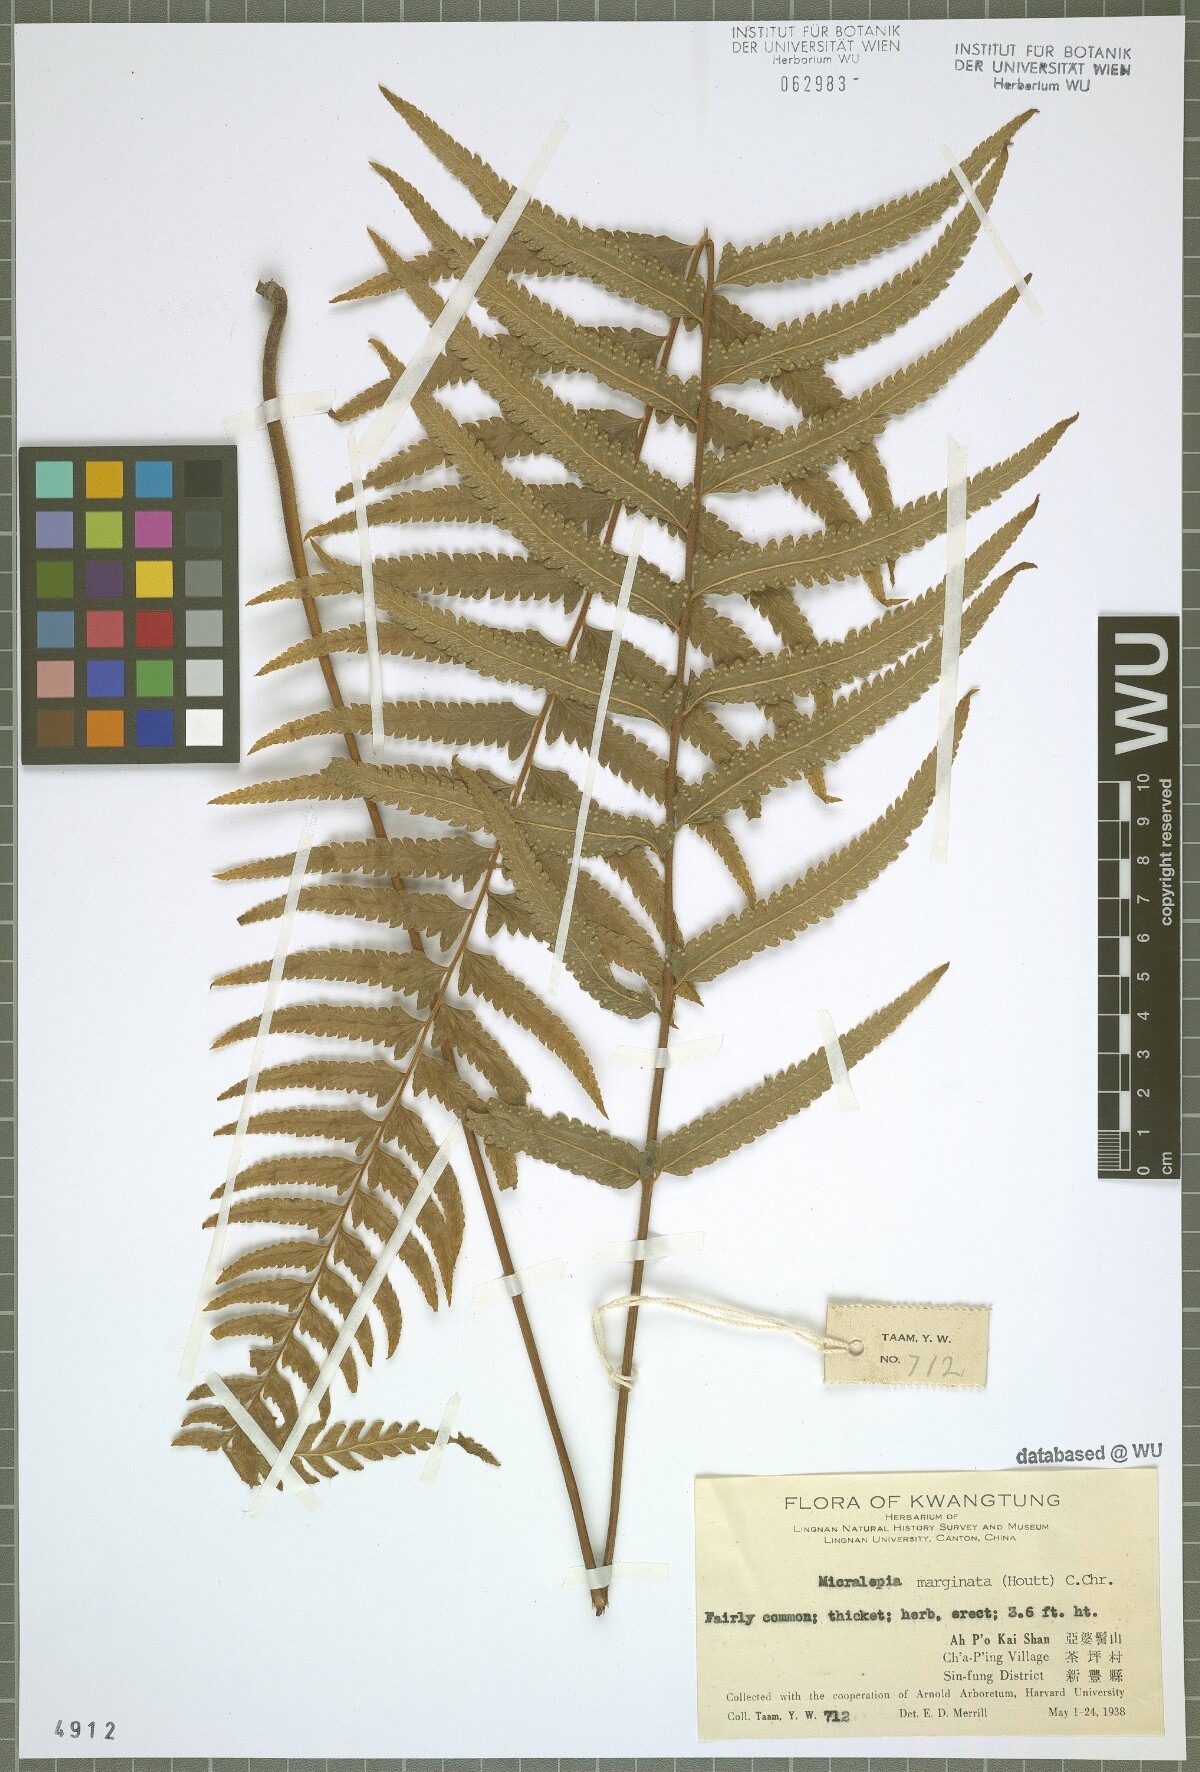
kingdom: Plantae
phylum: Tracheophyta
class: Polypodiopsida
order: Polypodiales
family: Dennstaedtiaceae
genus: Microlepia
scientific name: Microlepia marginata
